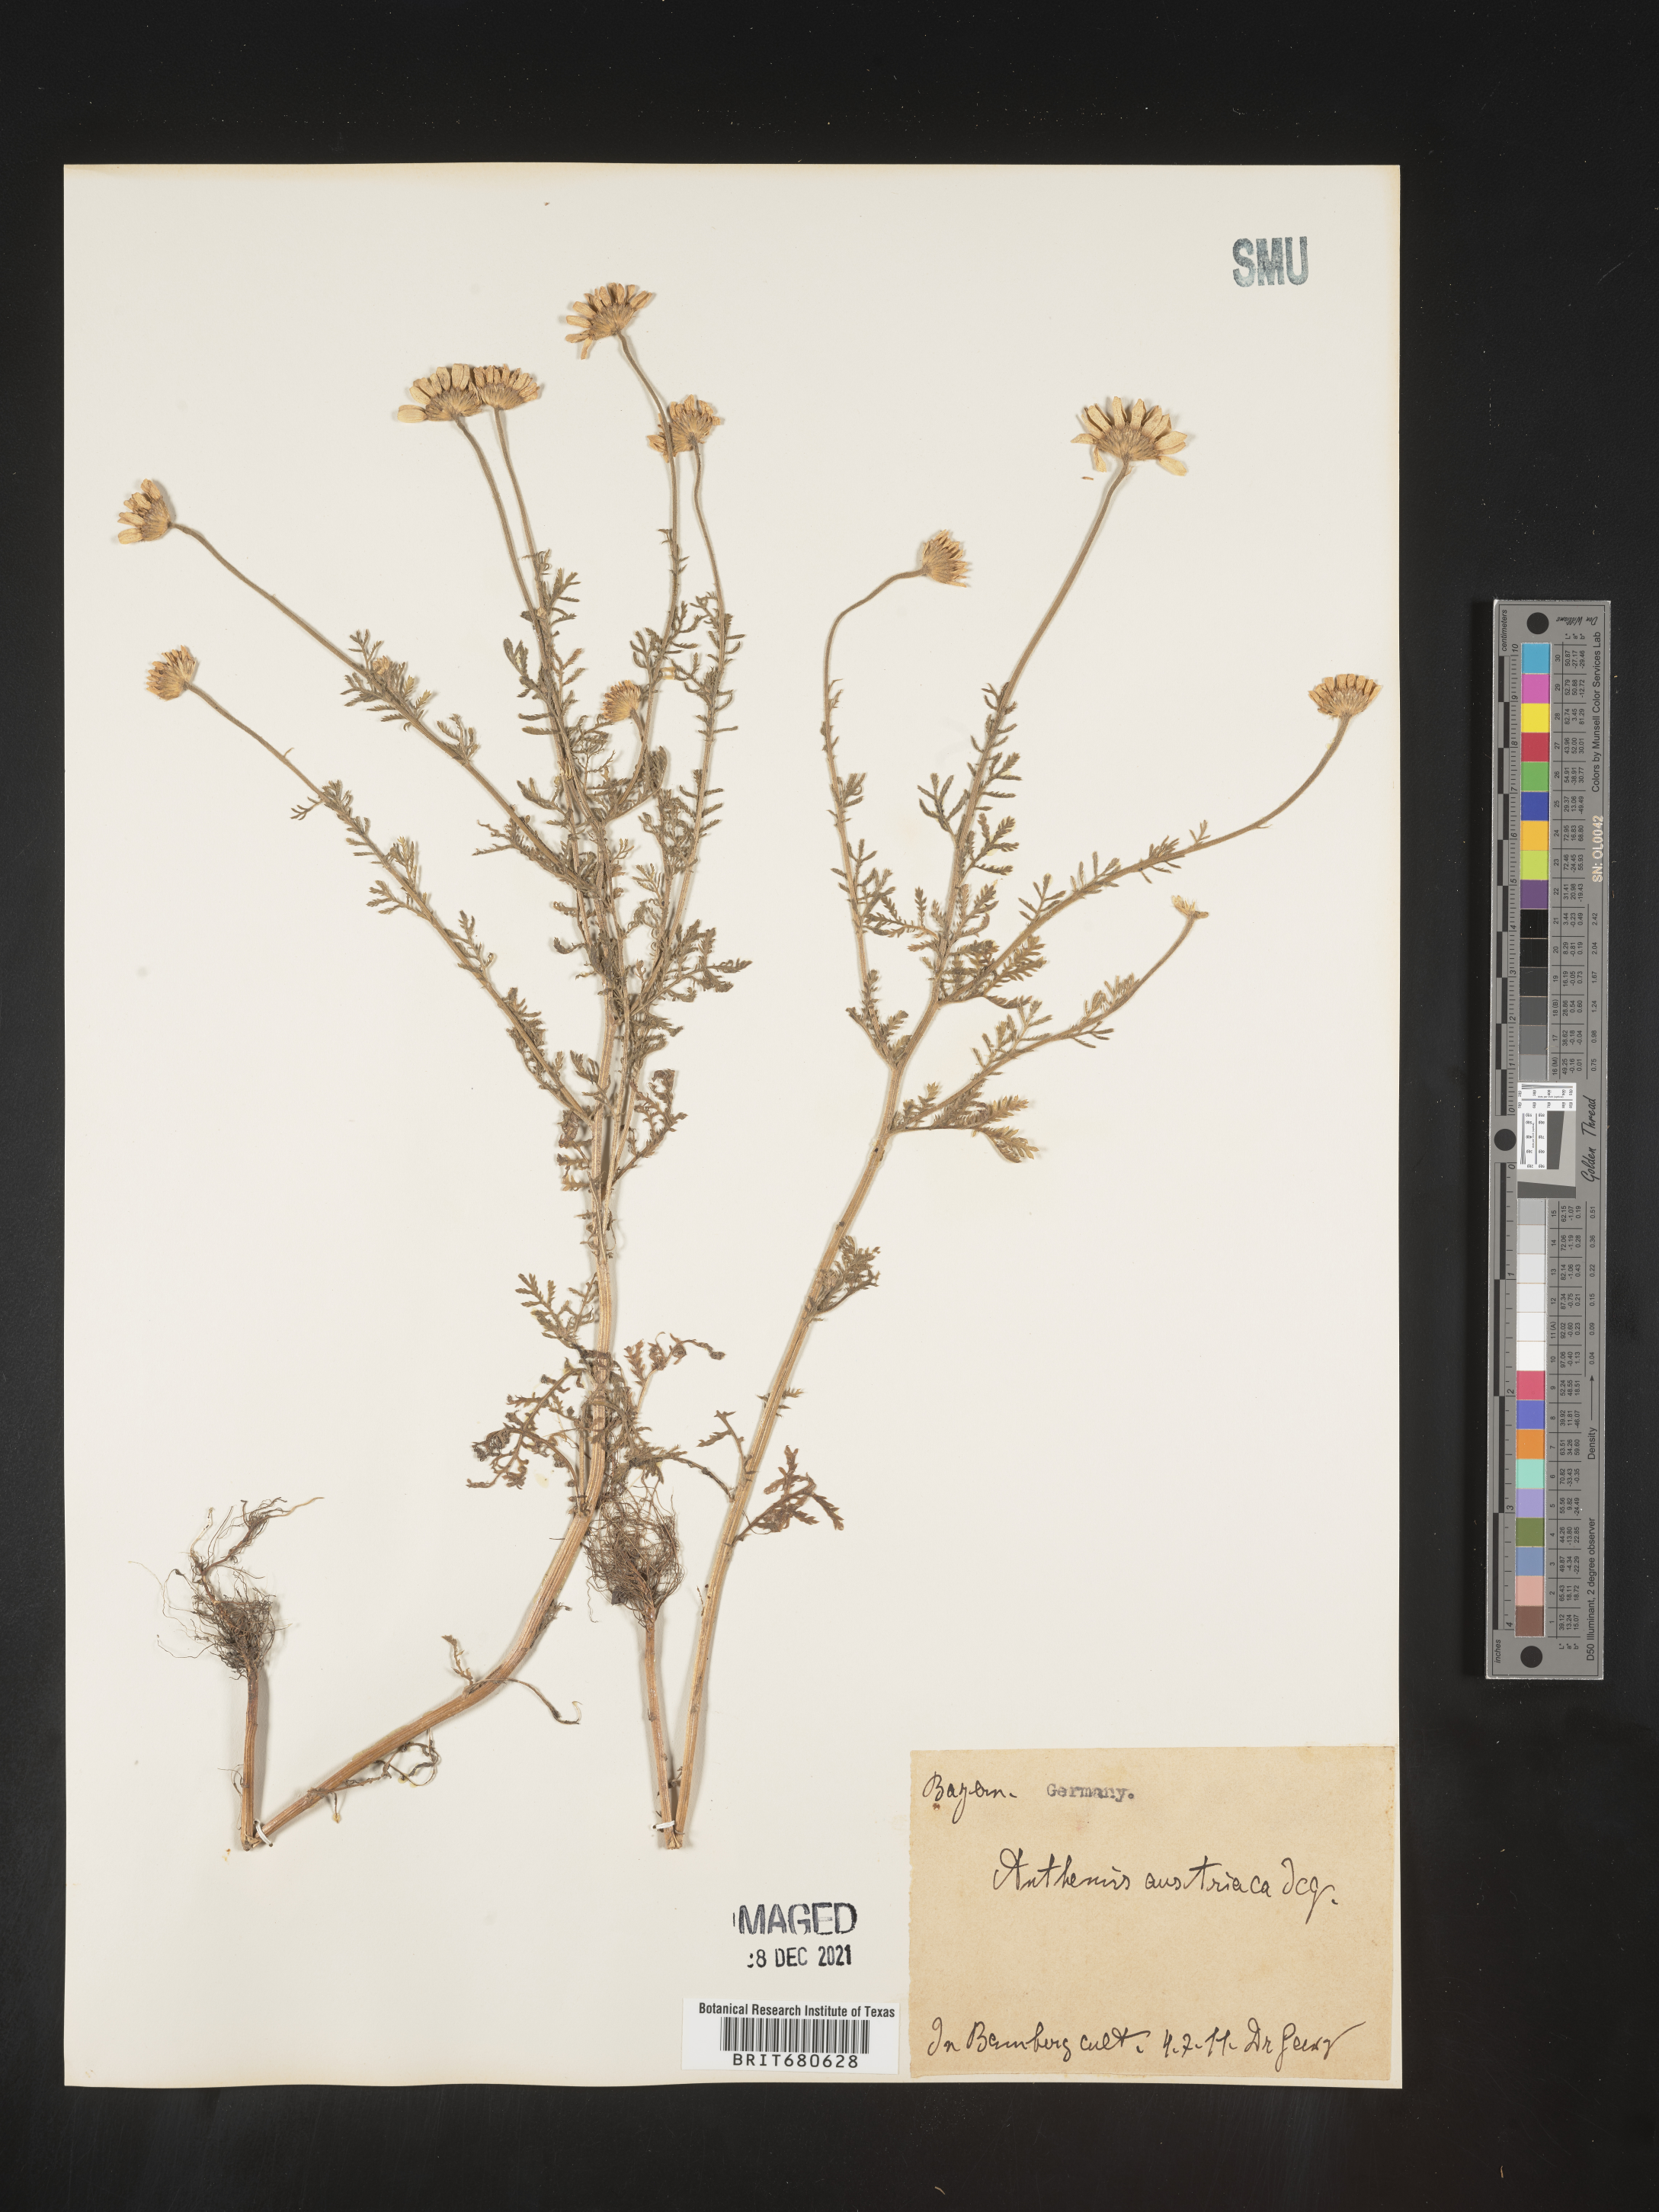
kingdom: Plantae
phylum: Tracheophyta
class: Magnoliopsida
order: Asterales
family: Asteraceae
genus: Anthemis
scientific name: Anthemis
